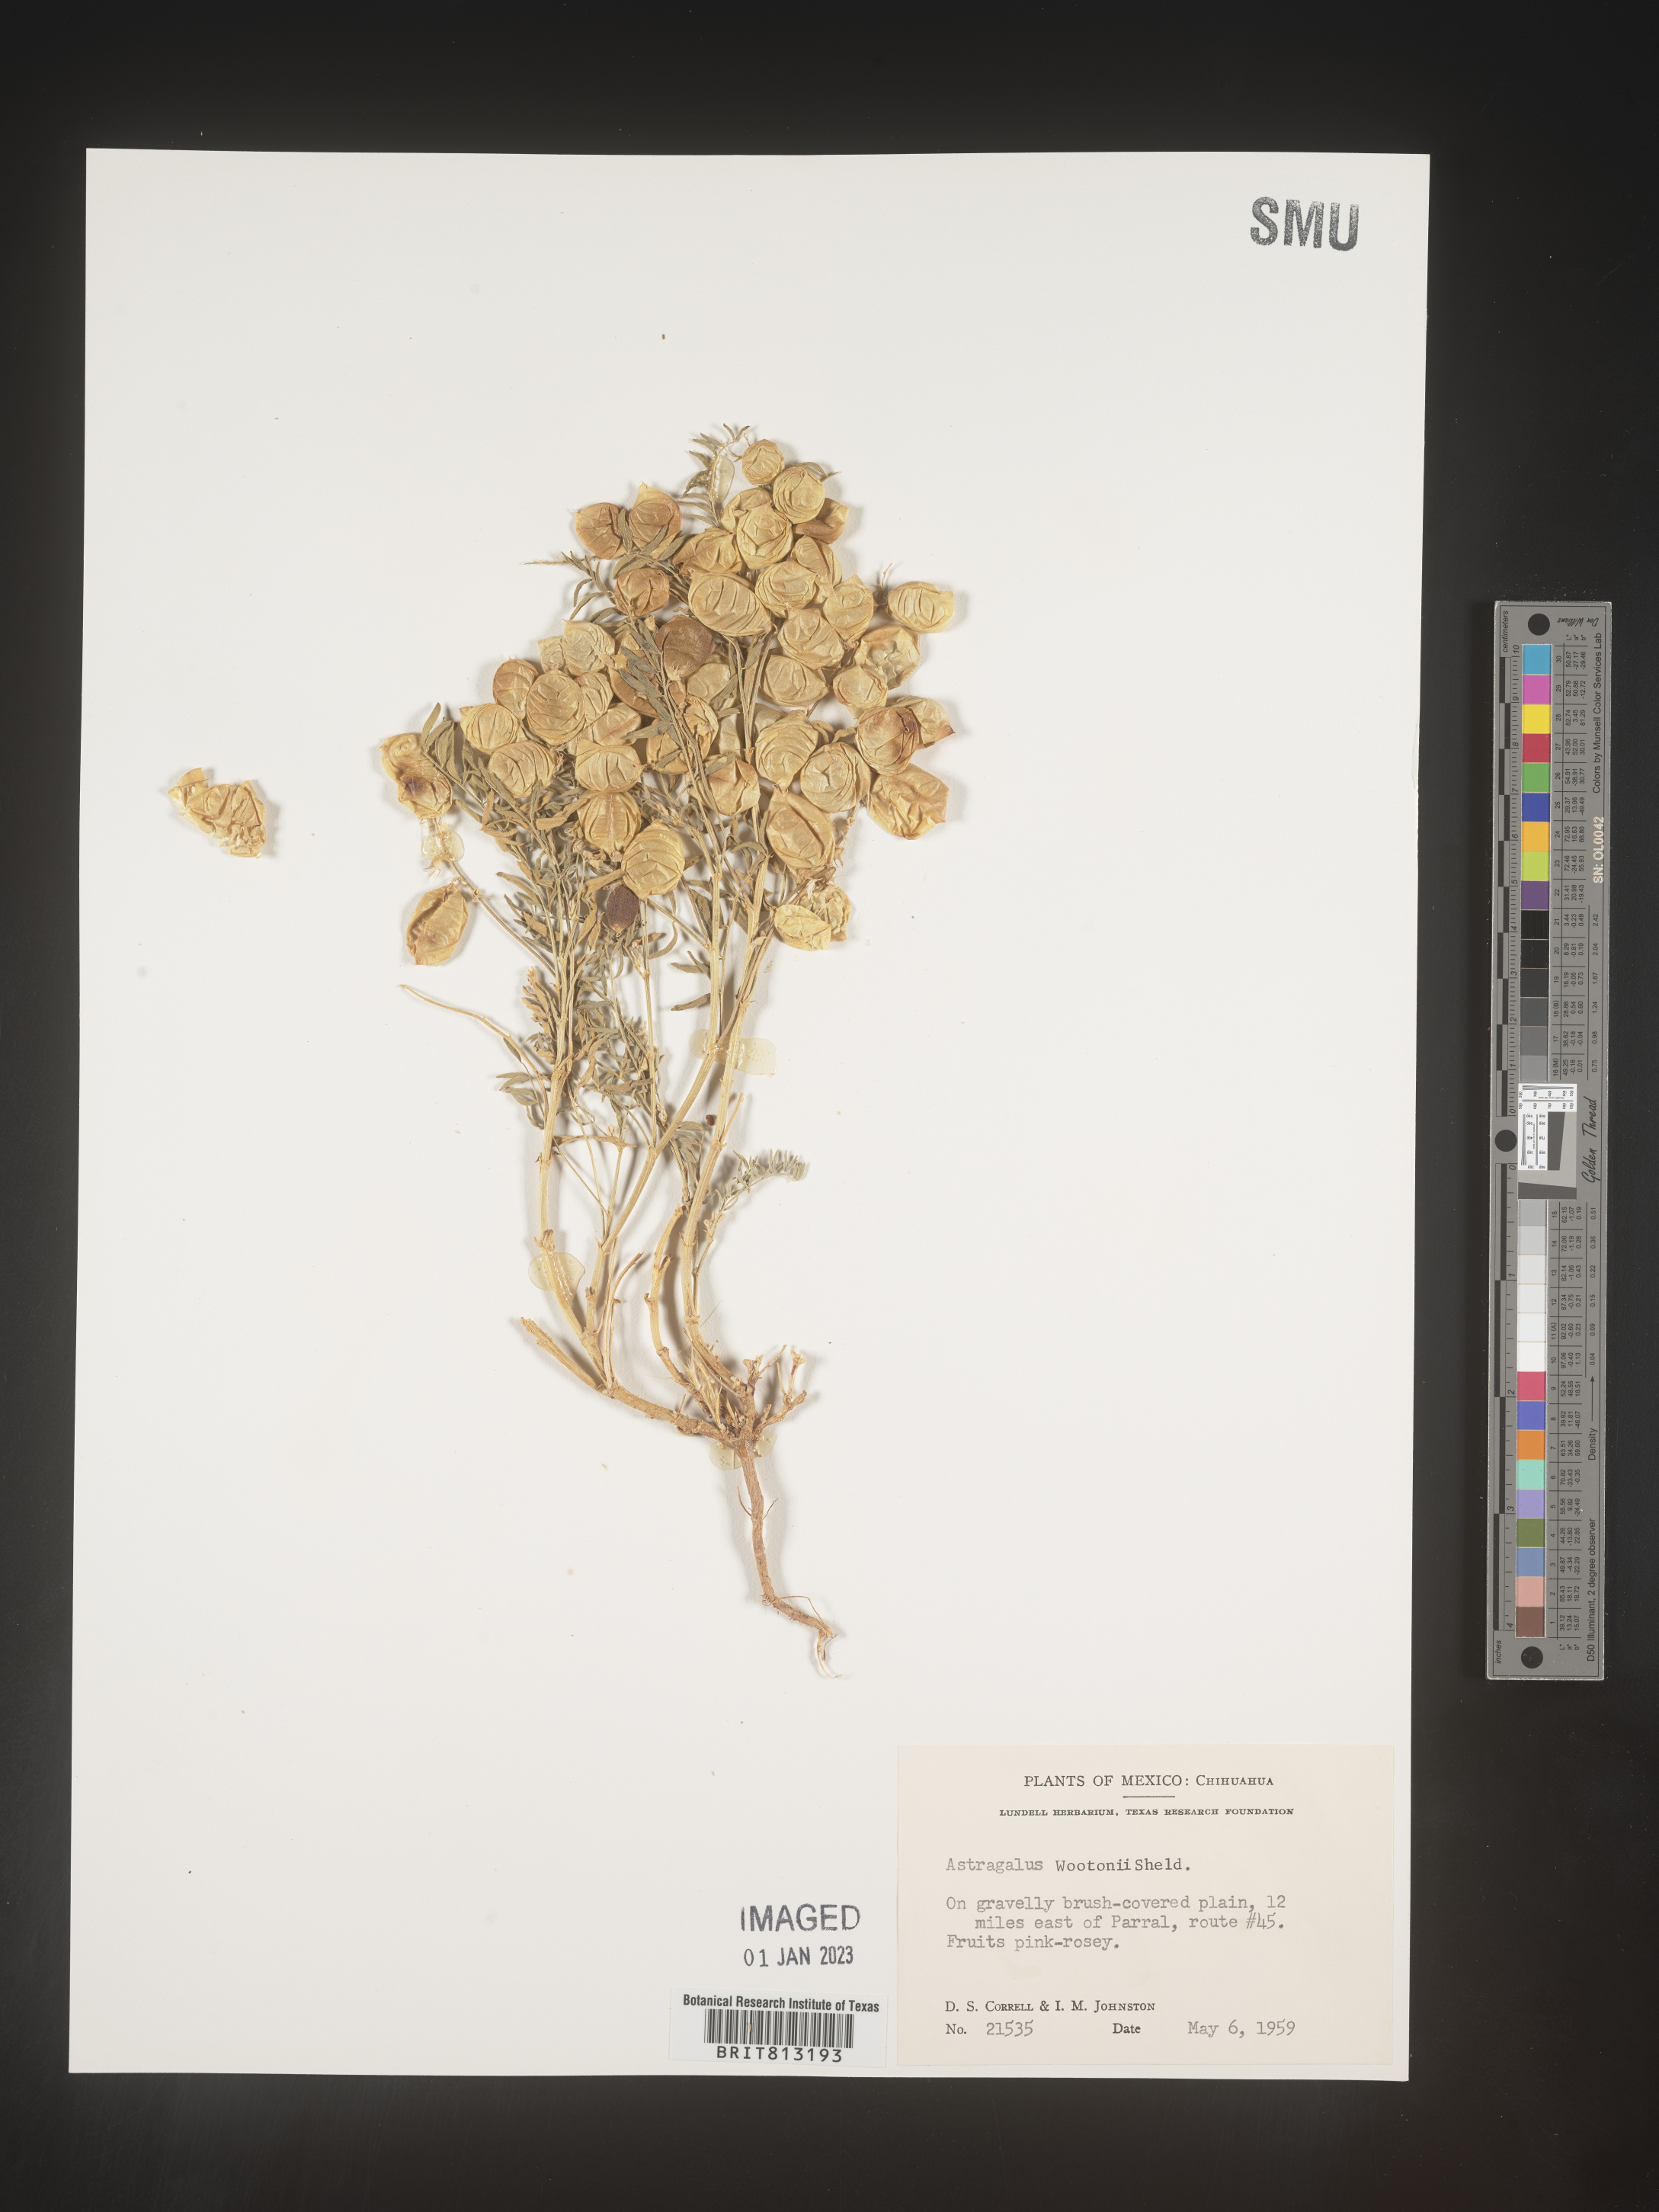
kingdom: Plantae
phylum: Tracheophyta
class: Magnoliopsida
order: Fabales
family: Fabaceae
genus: Astragalus
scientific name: Astragalus
